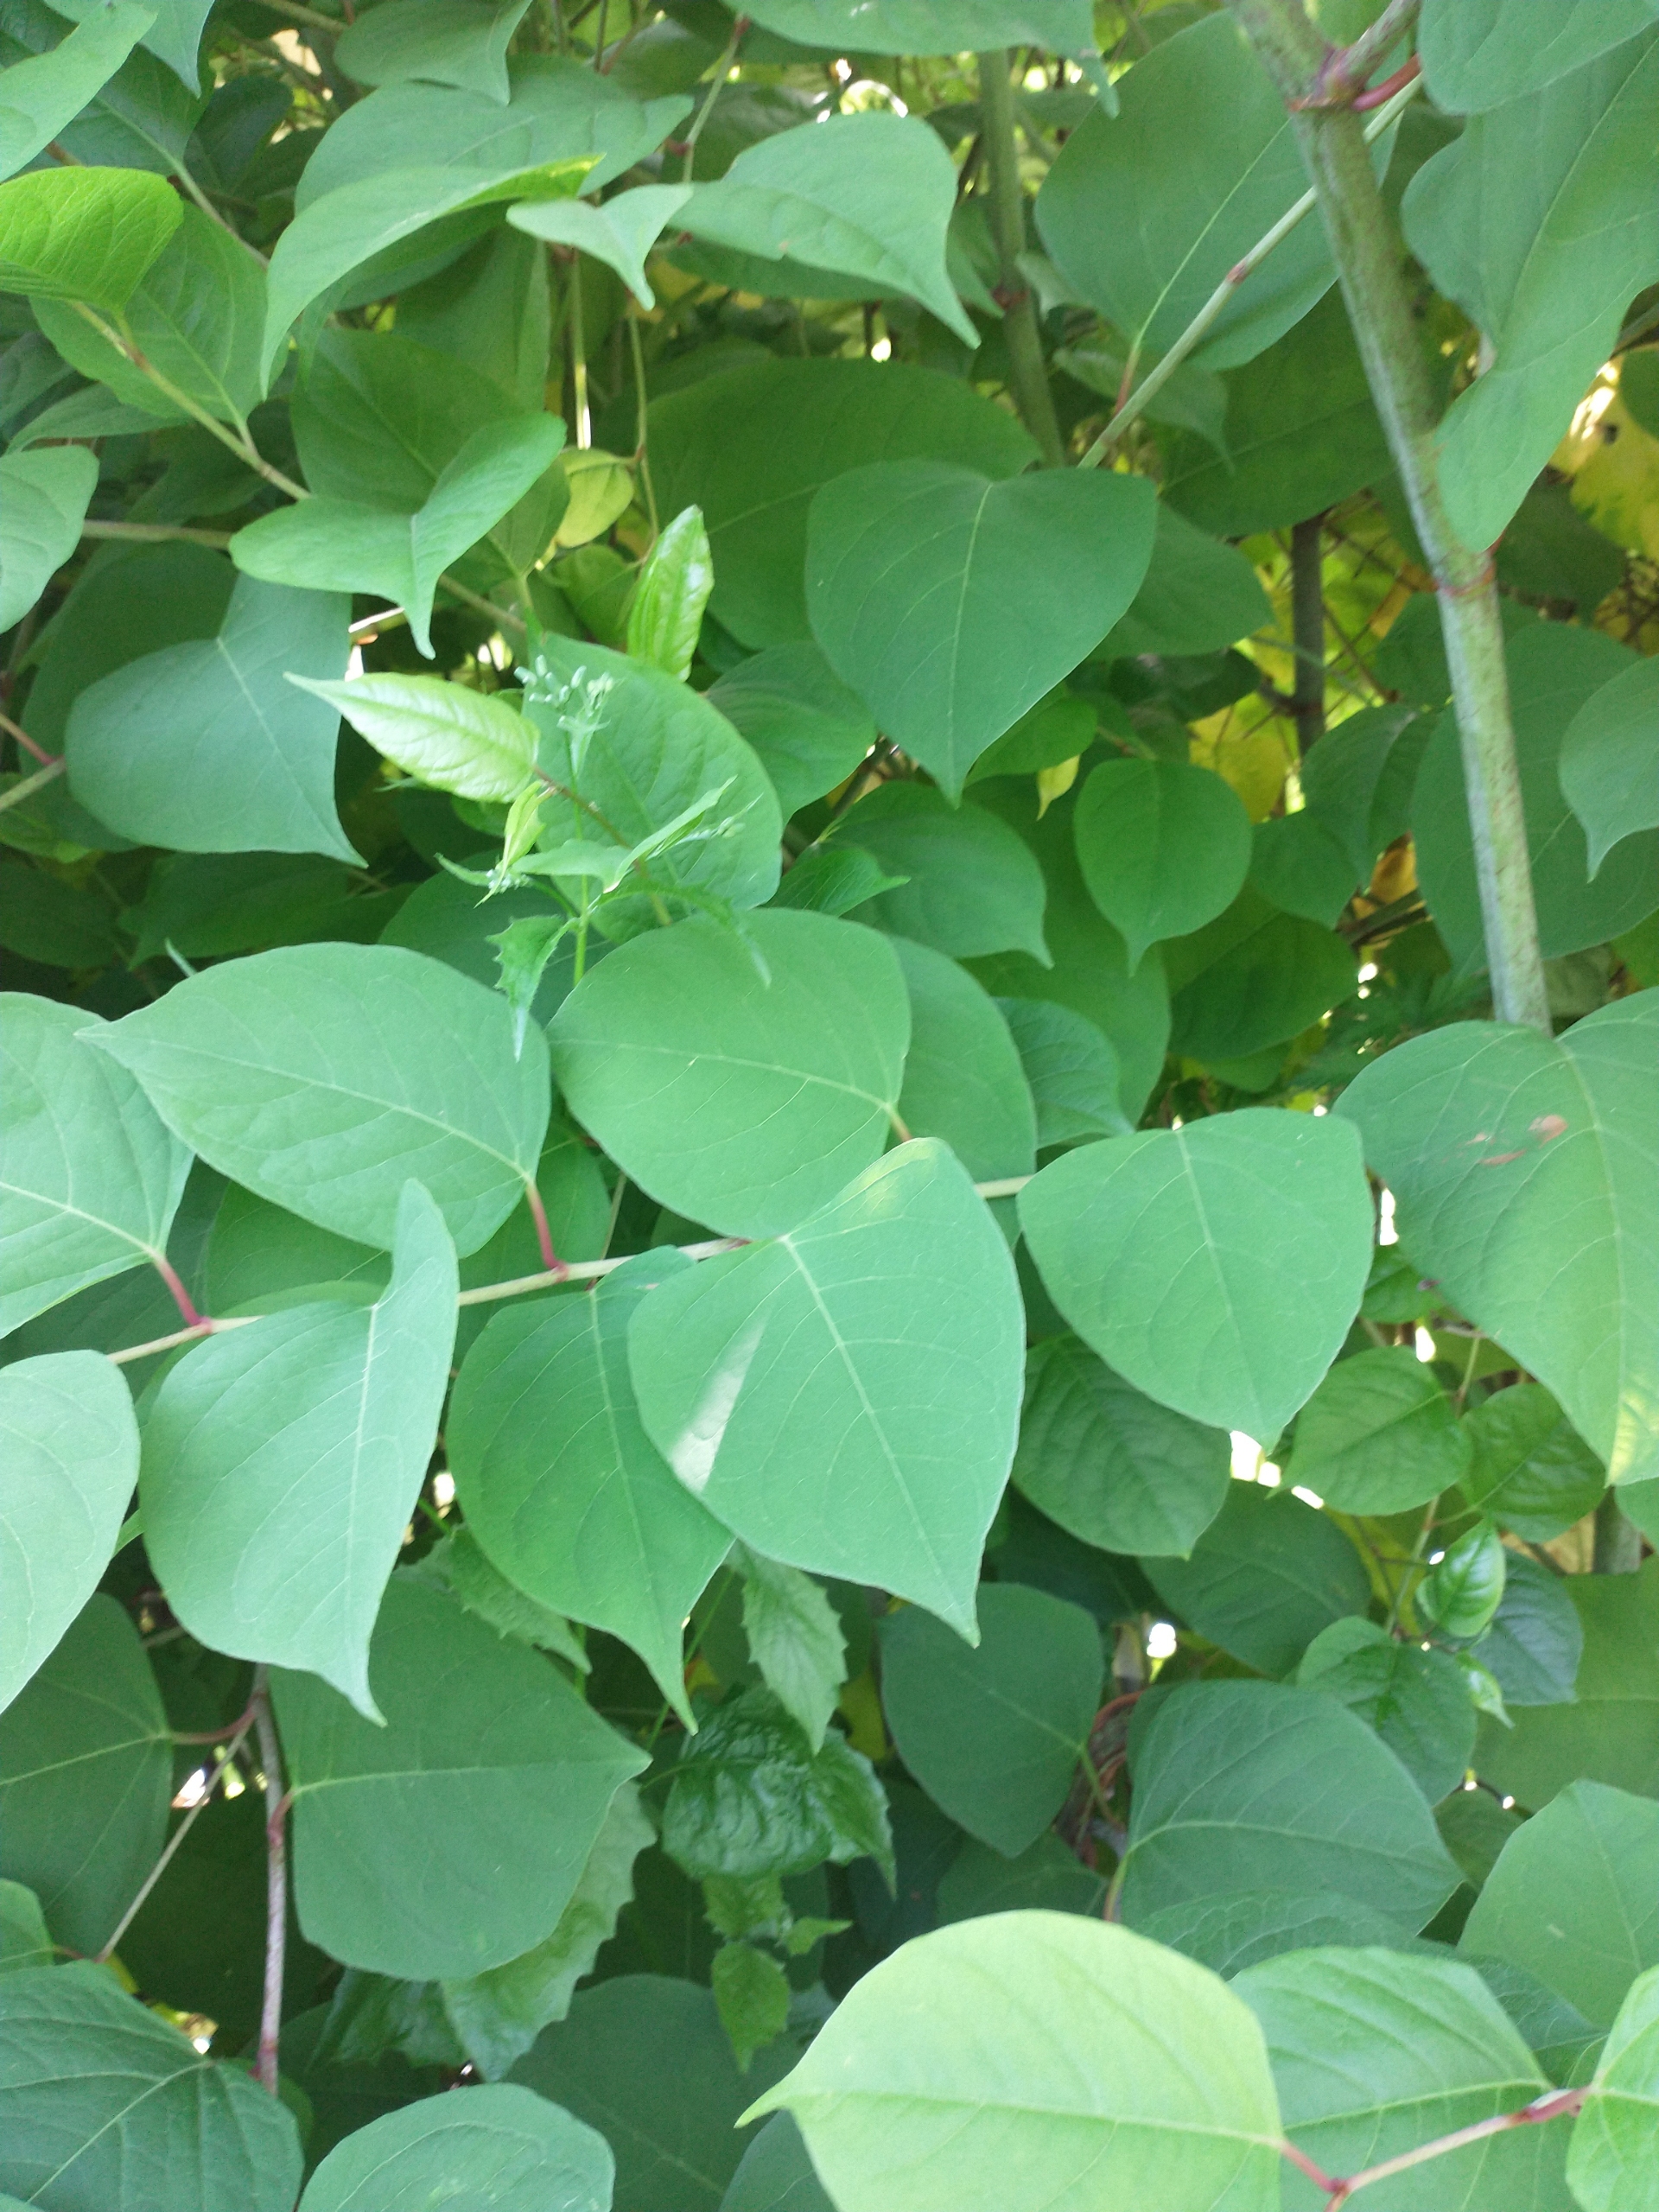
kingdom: Plantae
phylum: Tracheophyta
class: Magnoliopsida
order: Caryophyllales
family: Polygonaceae
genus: Reynoutria
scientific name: Reynoutria japonica
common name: Japan-pileurt
